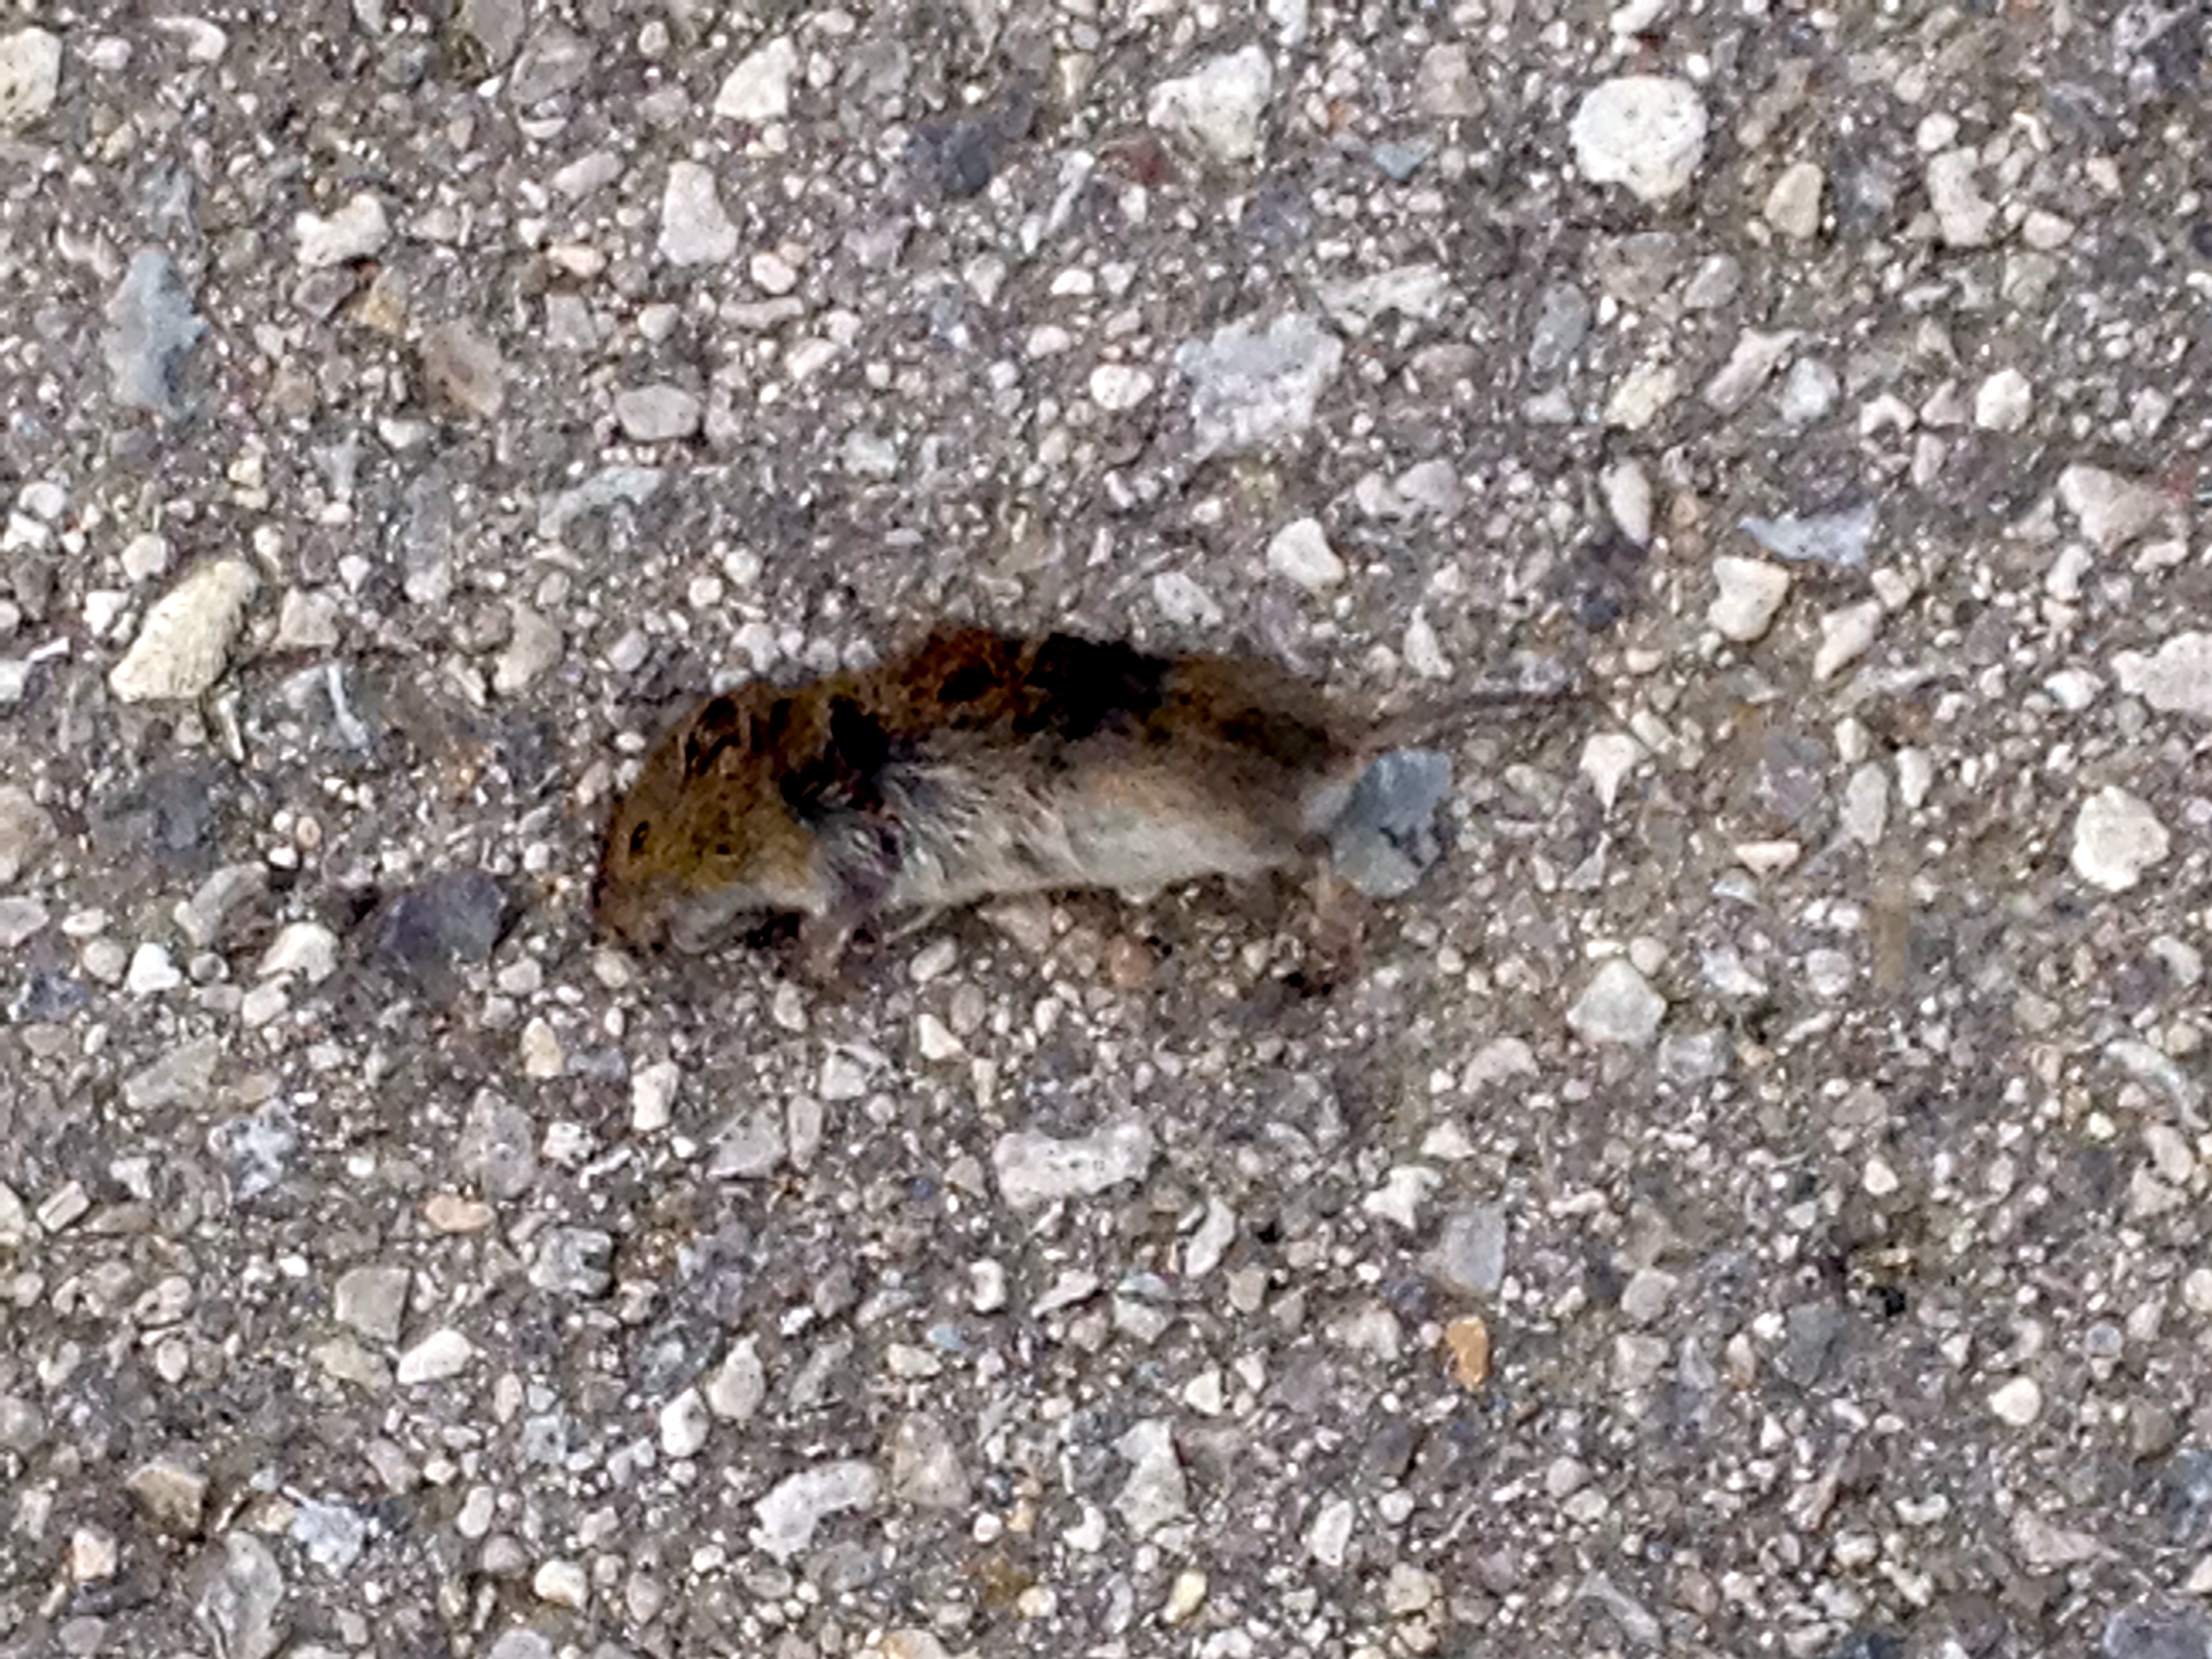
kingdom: Animalia
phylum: Chordata
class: Mammalia
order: Rodentia
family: Cricetidae
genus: Microtus
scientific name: Microtus
